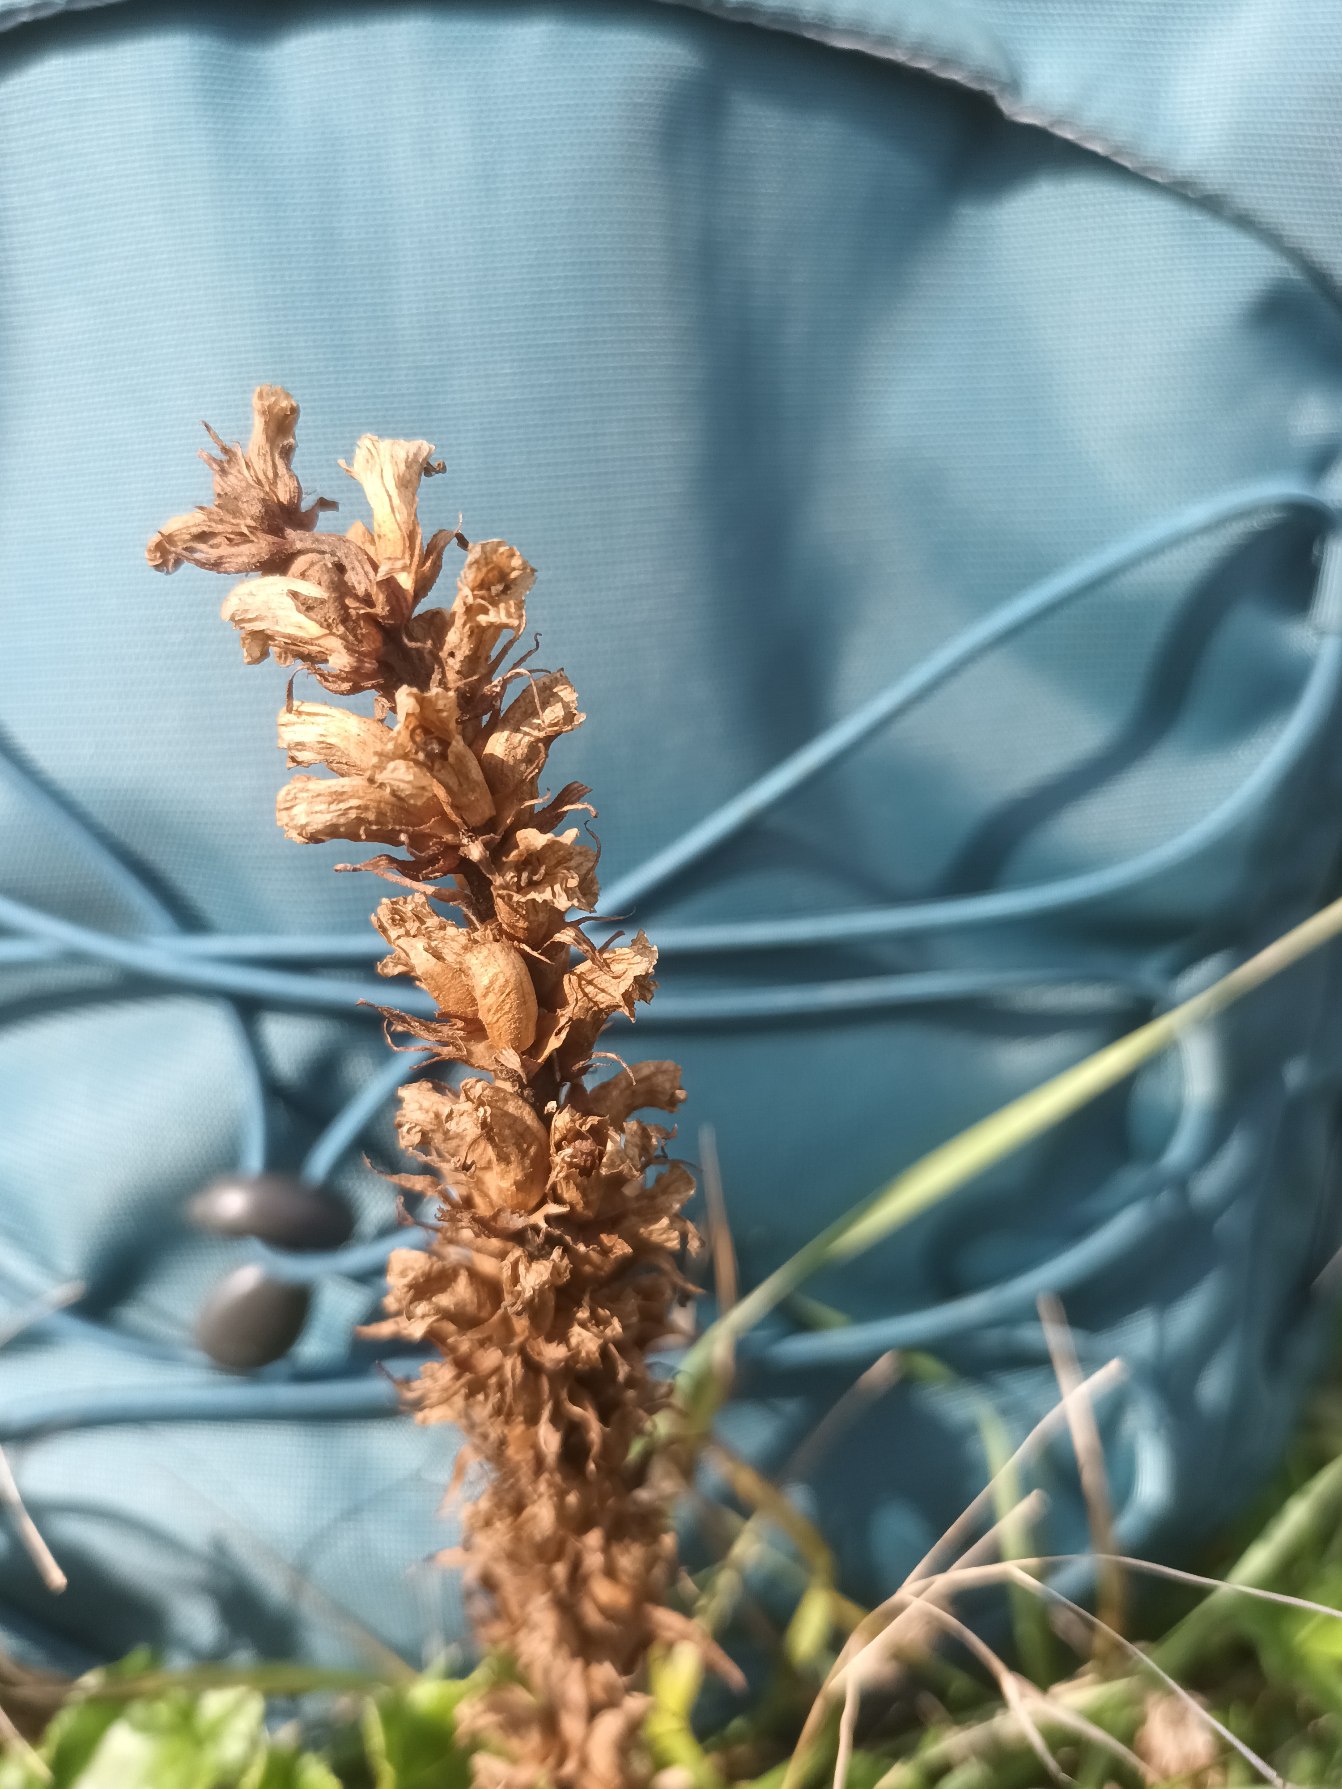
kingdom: Plantae
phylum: Tracheophyta
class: Magnoliopsida
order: Lamiales
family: Orobanchaceae
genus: Orobanche
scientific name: Orobanche minor
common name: Kløver-gyvelkvæler
